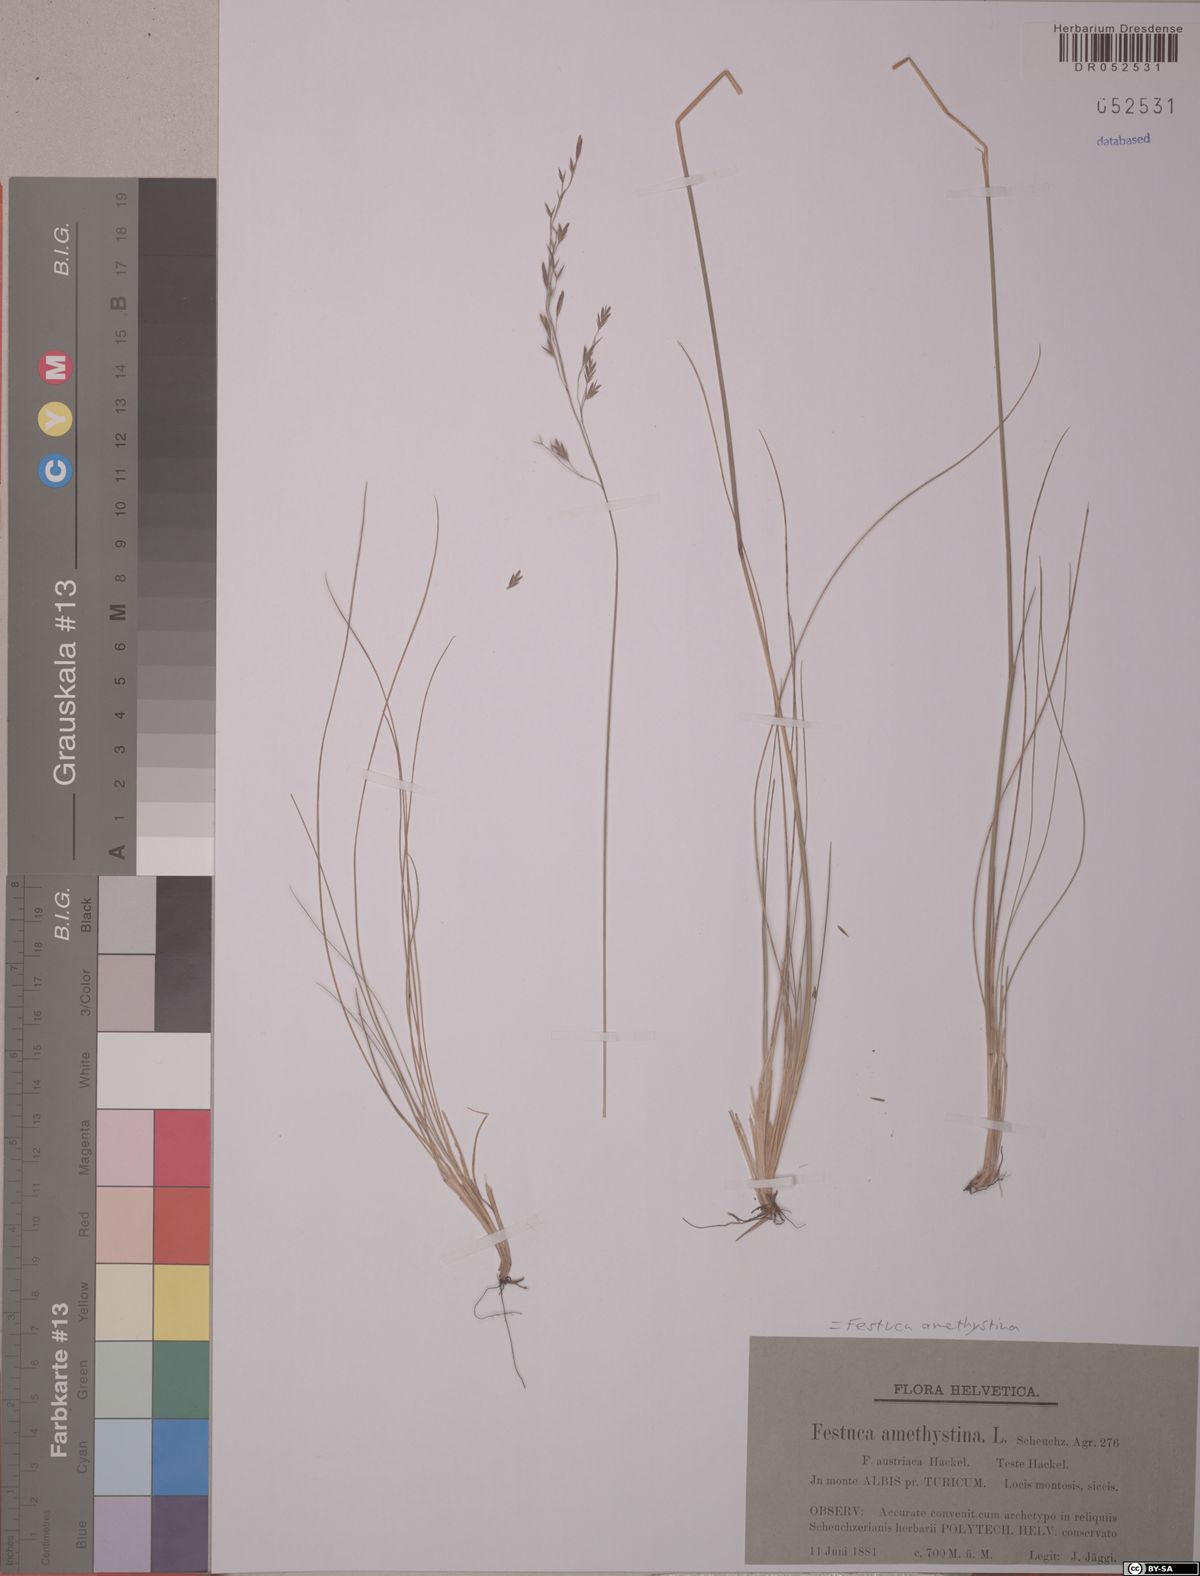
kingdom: Plantae
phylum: Tracheophyta
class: Liliopsida
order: Poales
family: Poaceae
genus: Festuca
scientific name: Festuca amethystina
